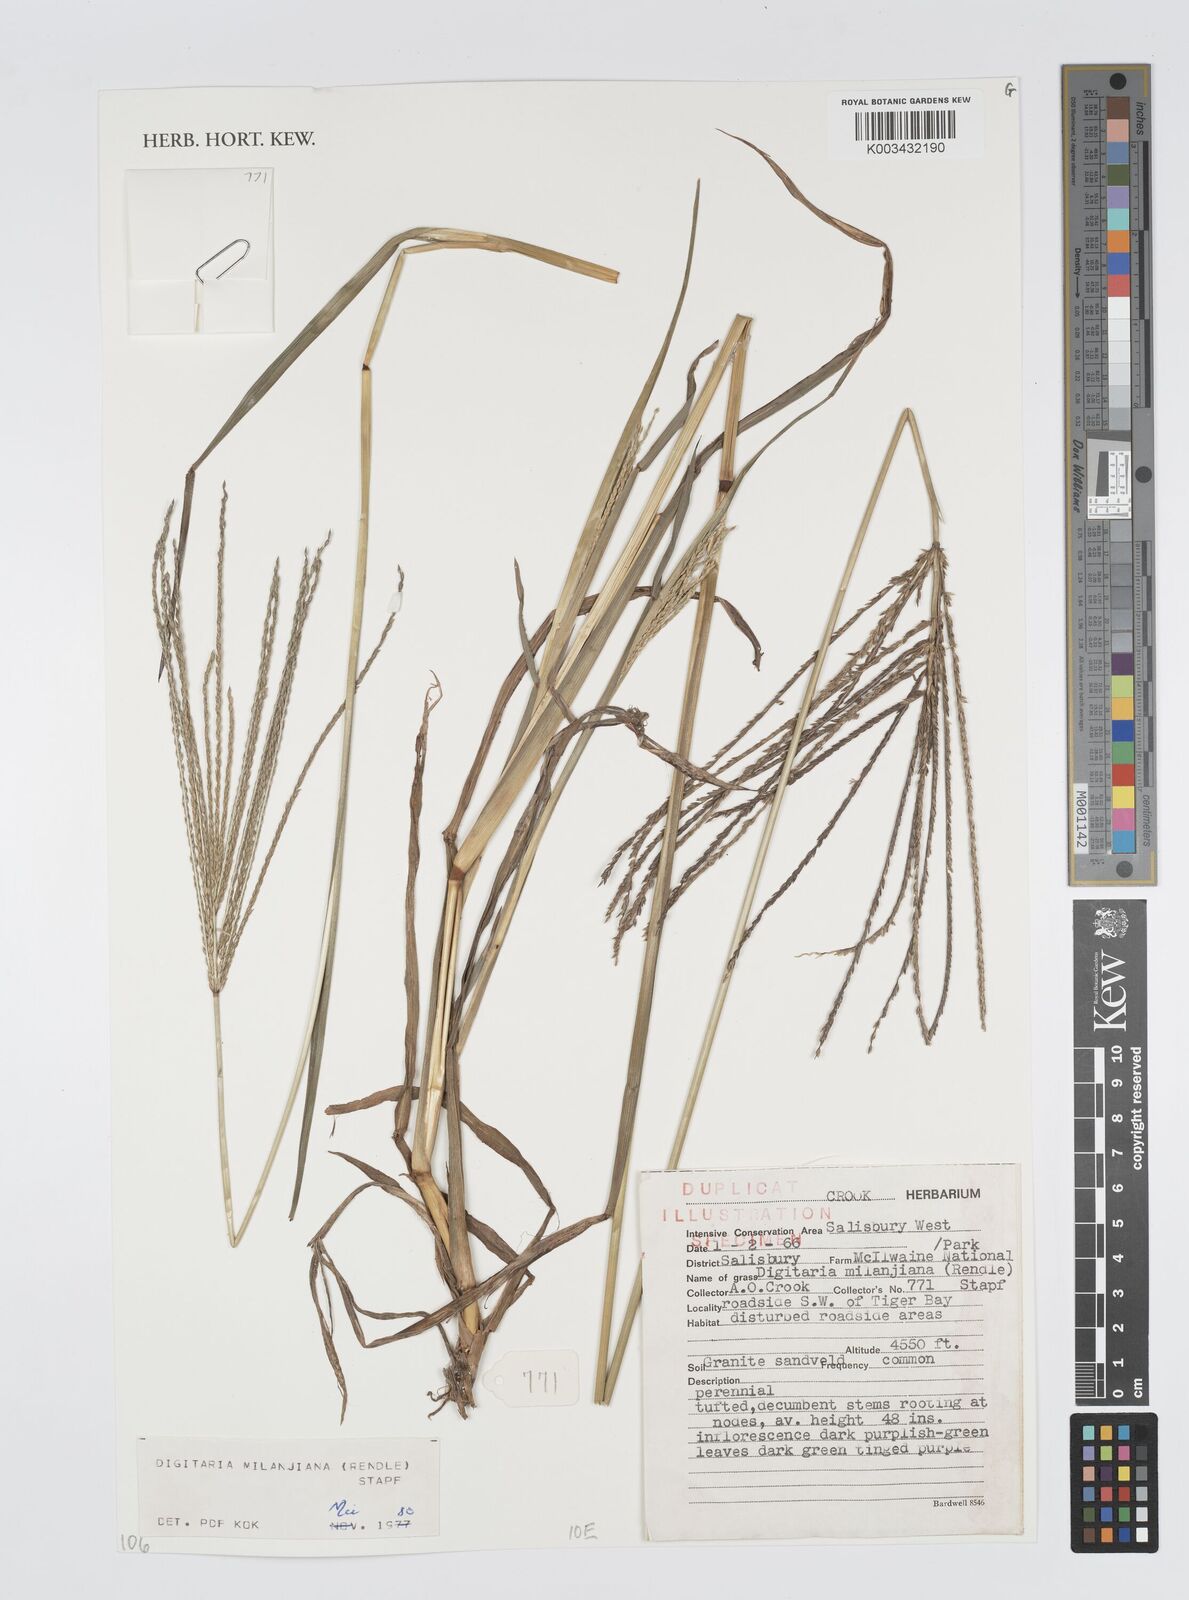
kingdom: Plantae
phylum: Tracheophyta
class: Liliopsida
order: Poales
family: Poaceae
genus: Digitaria
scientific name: Digitaria milanjiana
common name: Madagascar crabgrass
